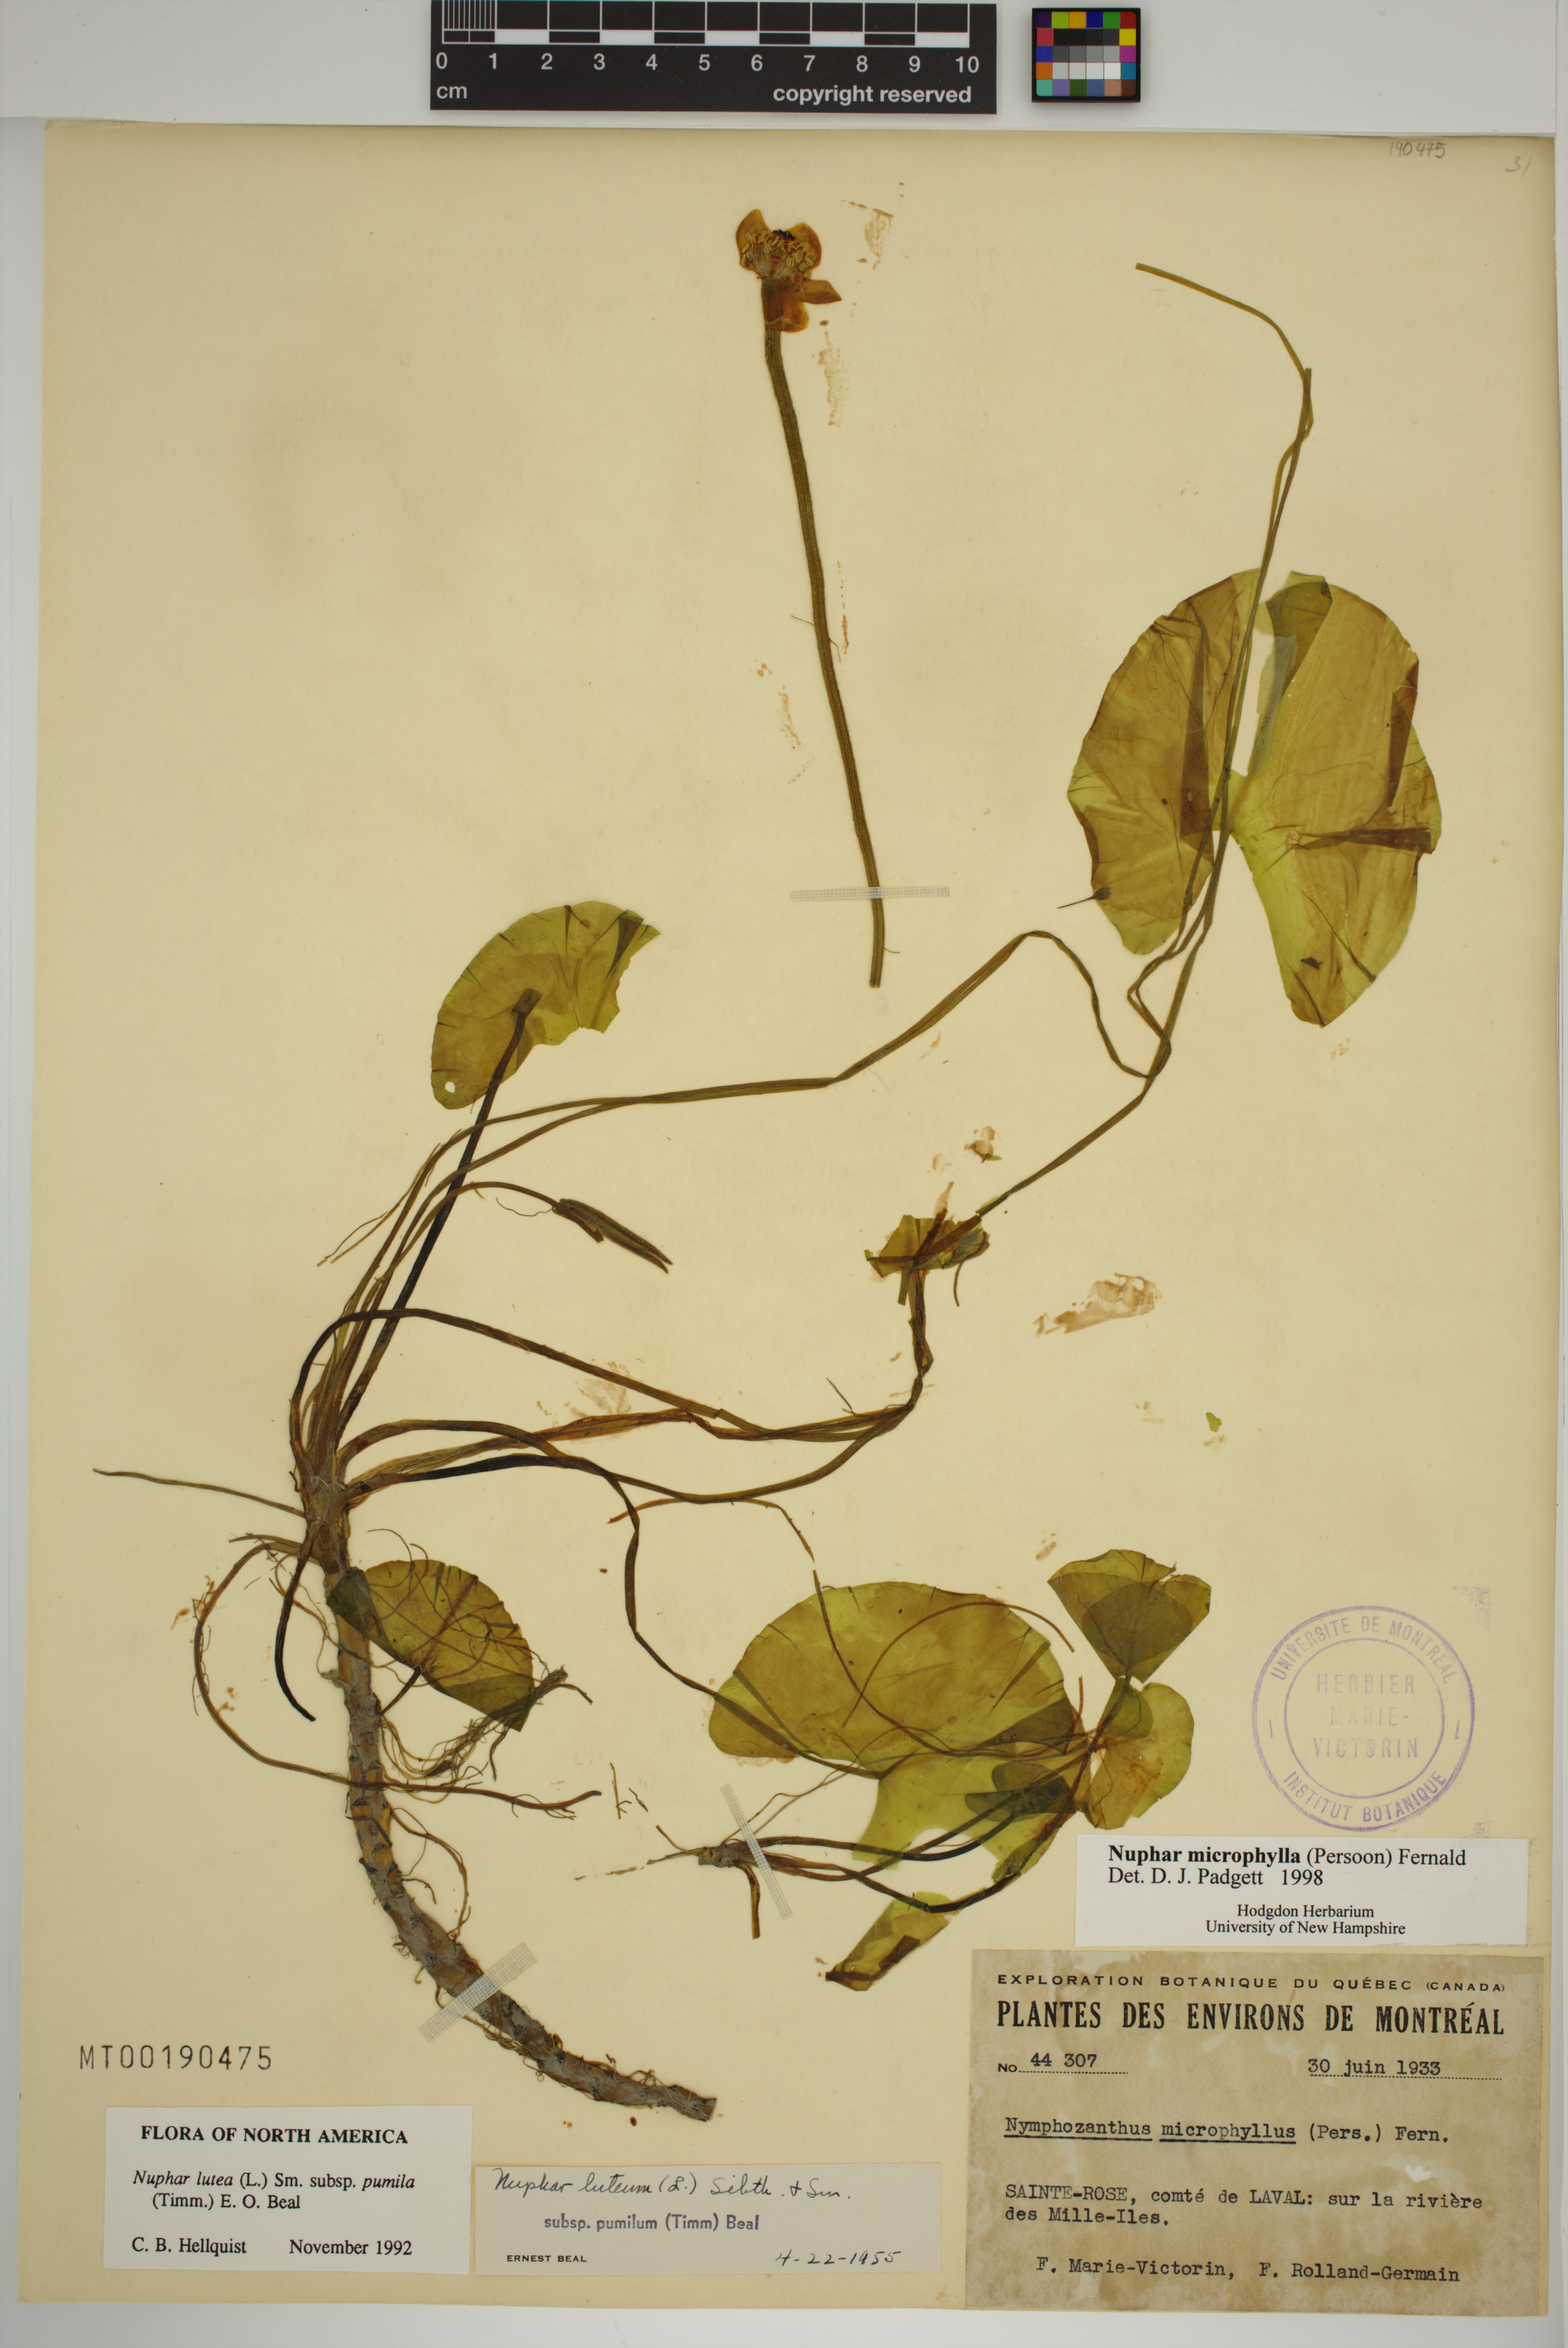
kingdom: Plantae
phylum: Tracheophyta
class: Magnoliopsida
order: Nymphaeales
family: Nymphaeaceae
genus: Nuphar
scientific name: Nuphar microphylla
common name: Small pond-lily
